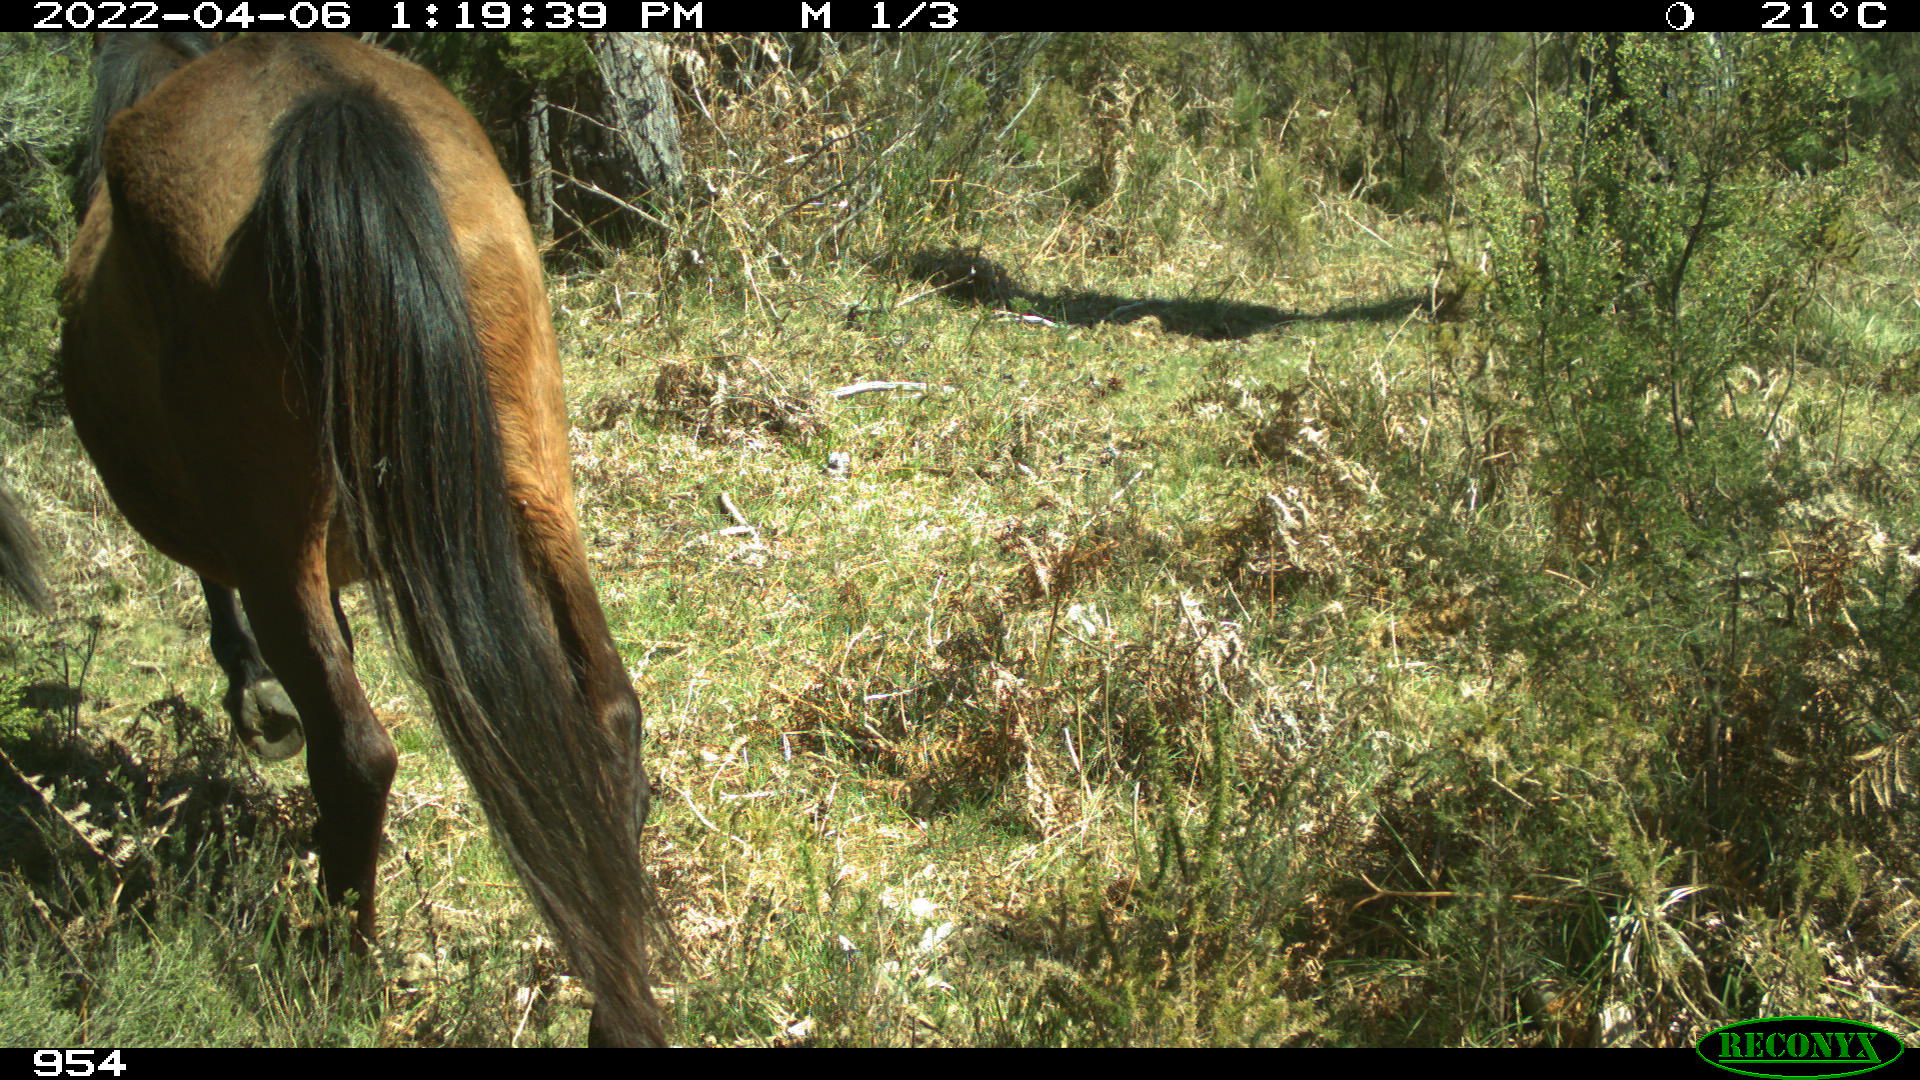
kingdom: Animalia
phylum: Chordata
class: Mammalia
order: Perissodactyla
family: Equidae
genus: Equus
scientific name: Equus caballus
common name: Horse
